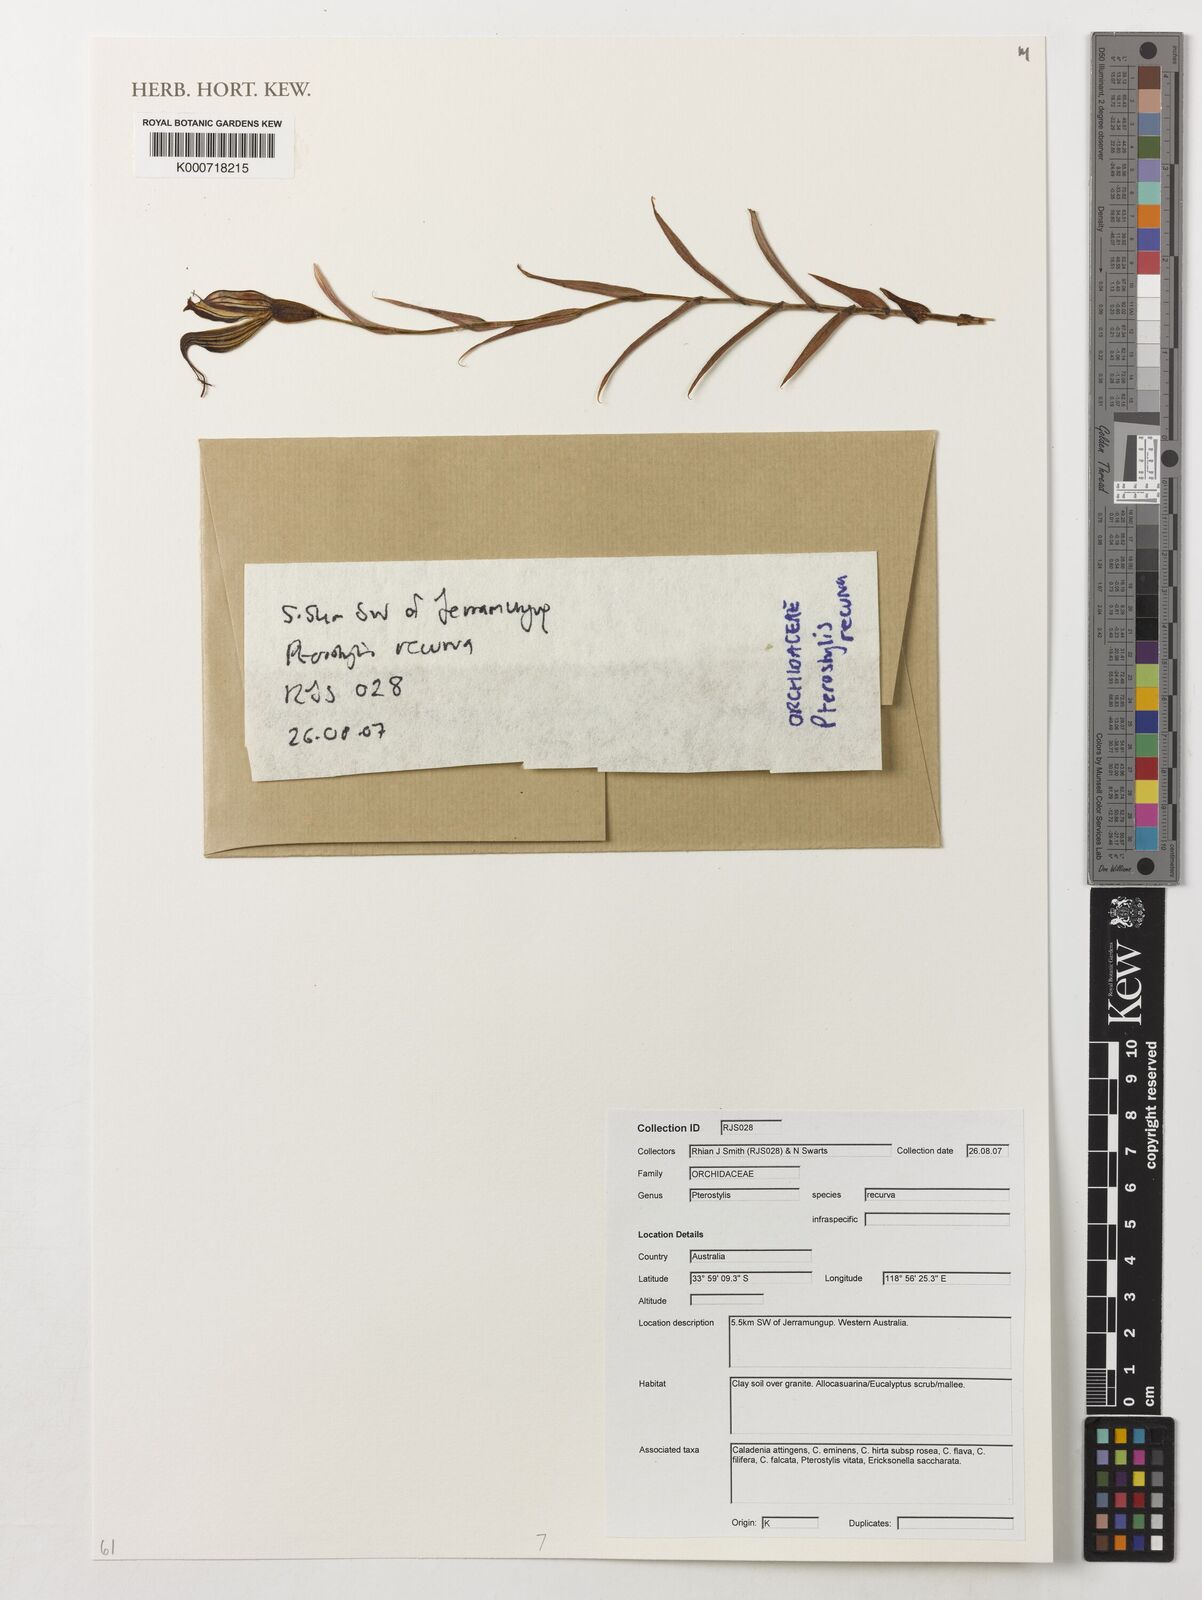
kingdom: Plantae
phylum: Tracheophyta
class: Liliopsida
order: Asparagales
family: Orchidaceae
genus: Pterostylis
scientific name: Pterostylis recurva
